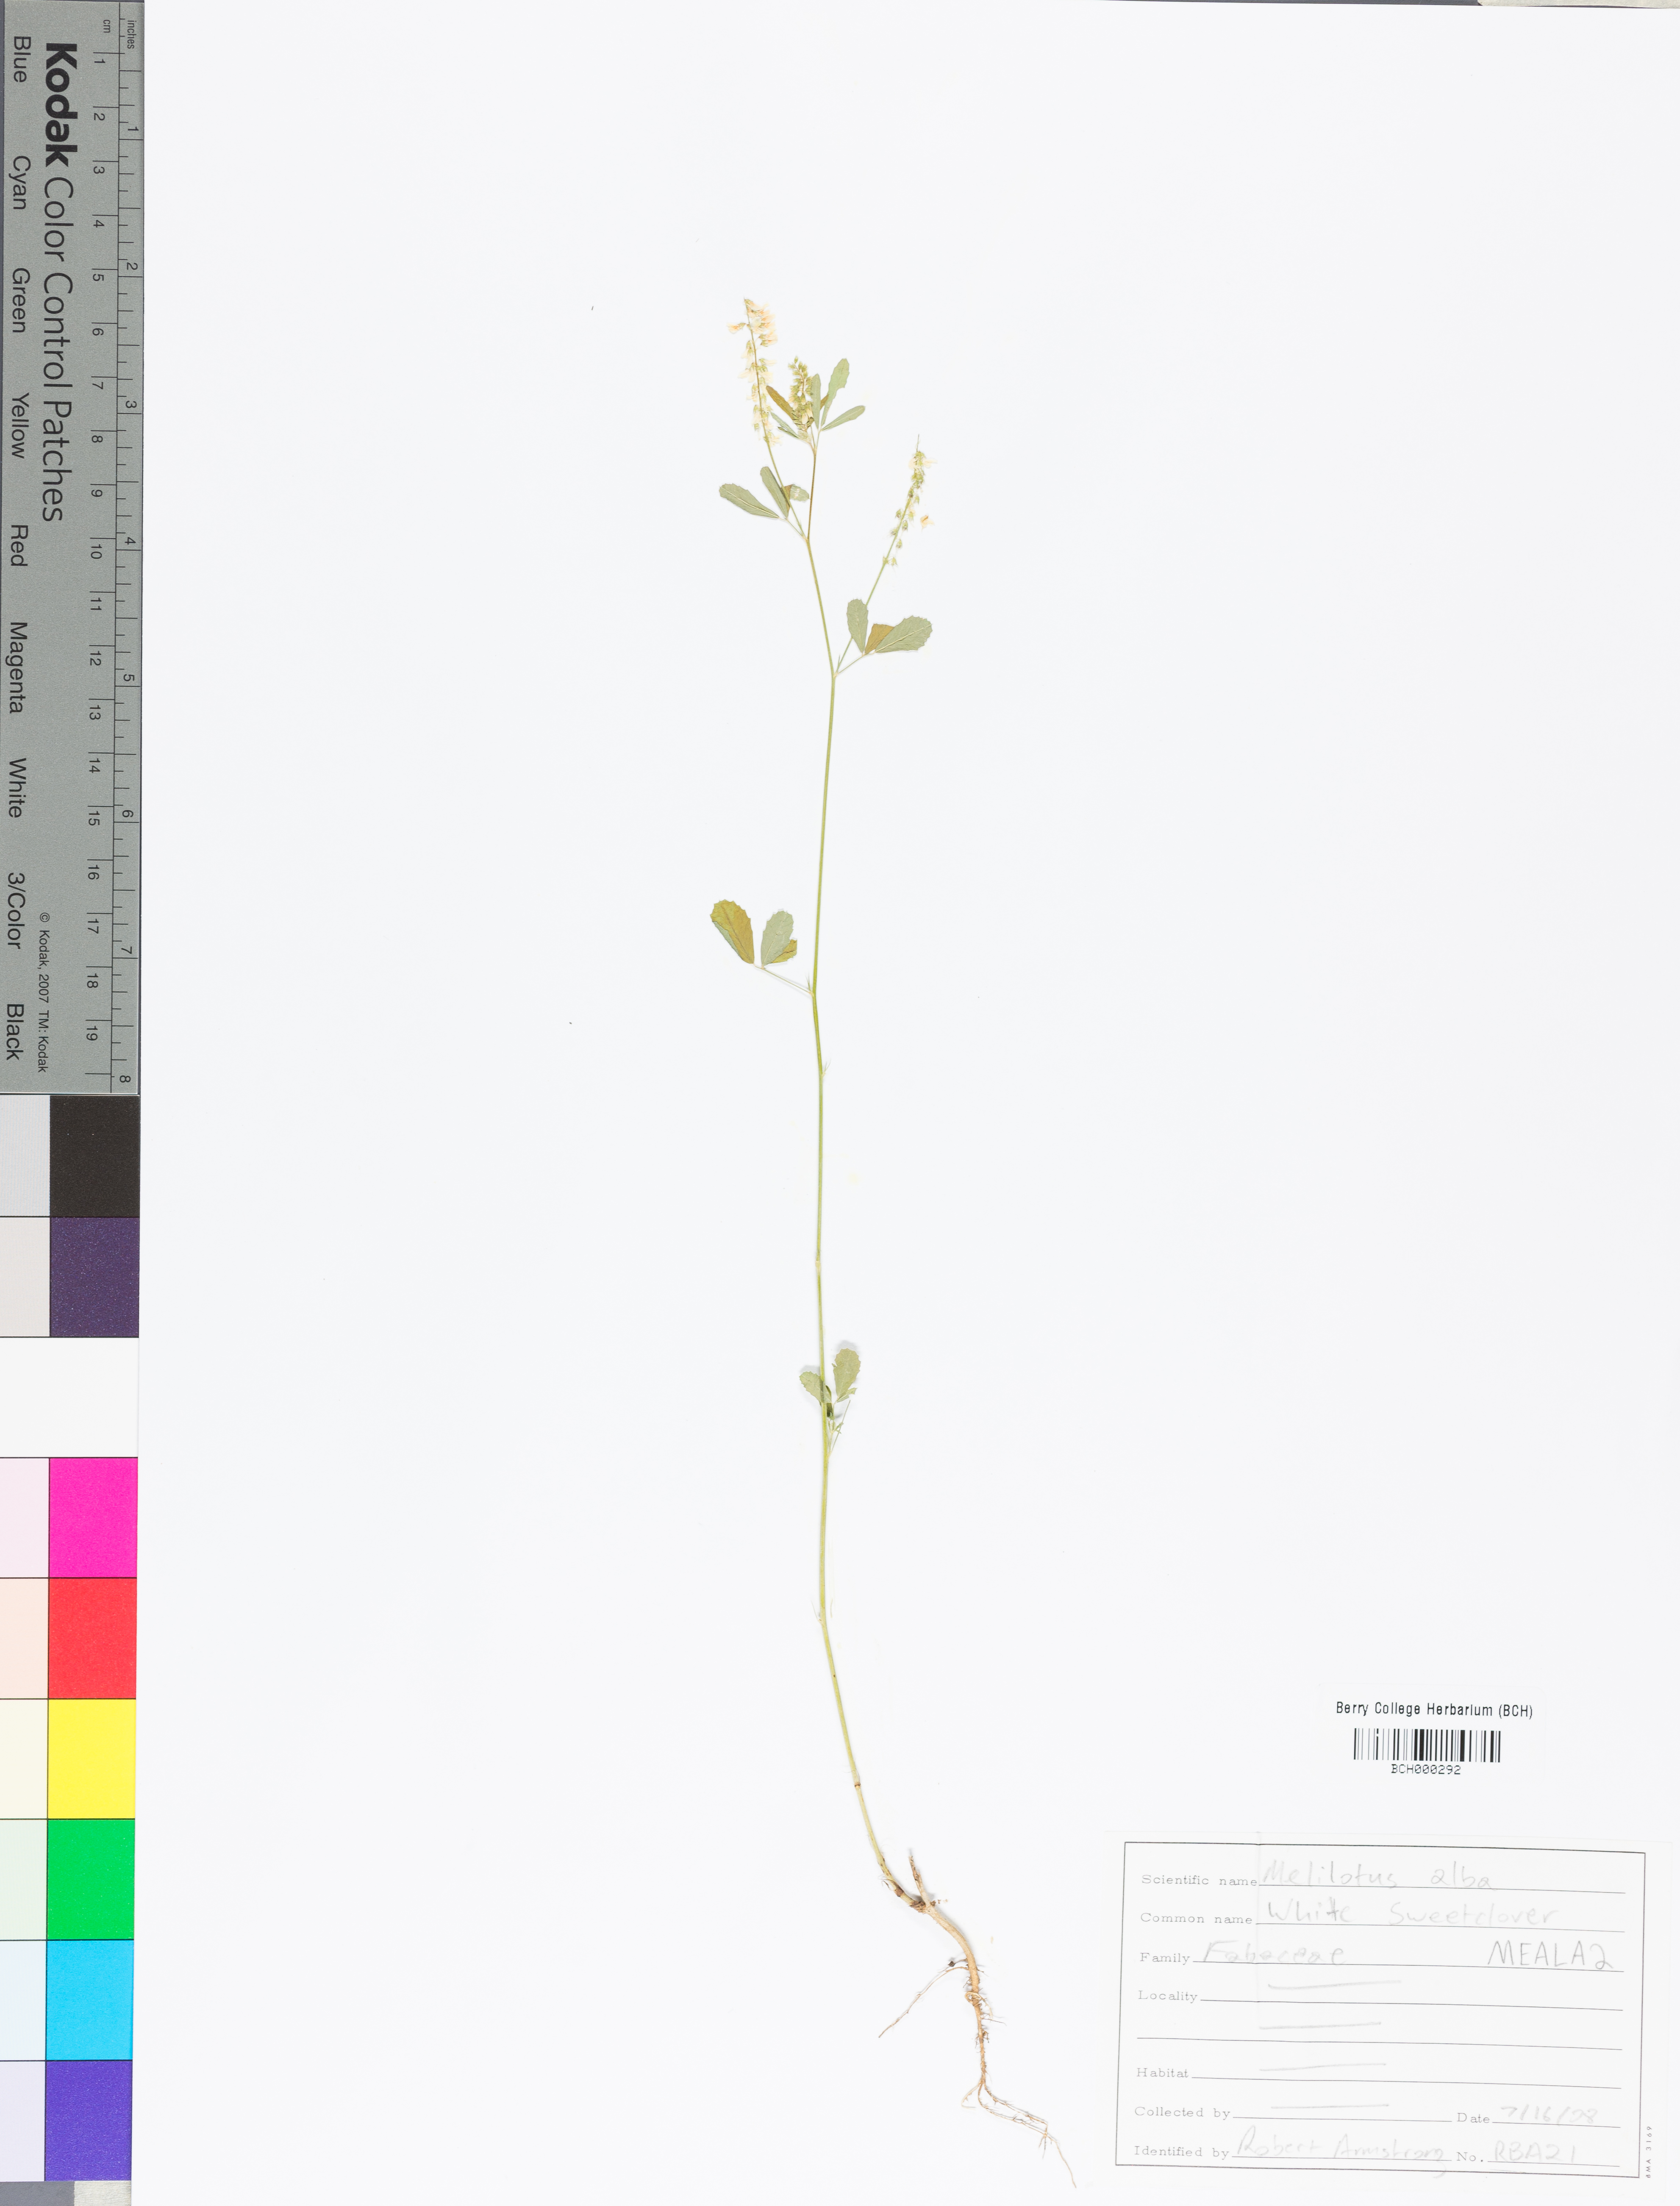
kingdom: Plantae
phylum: Tracheophyta
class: Magnoliopsida
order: Fabales
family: Fabaceae
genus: Melilotus
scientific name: Melilotus albus
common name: White melilot
